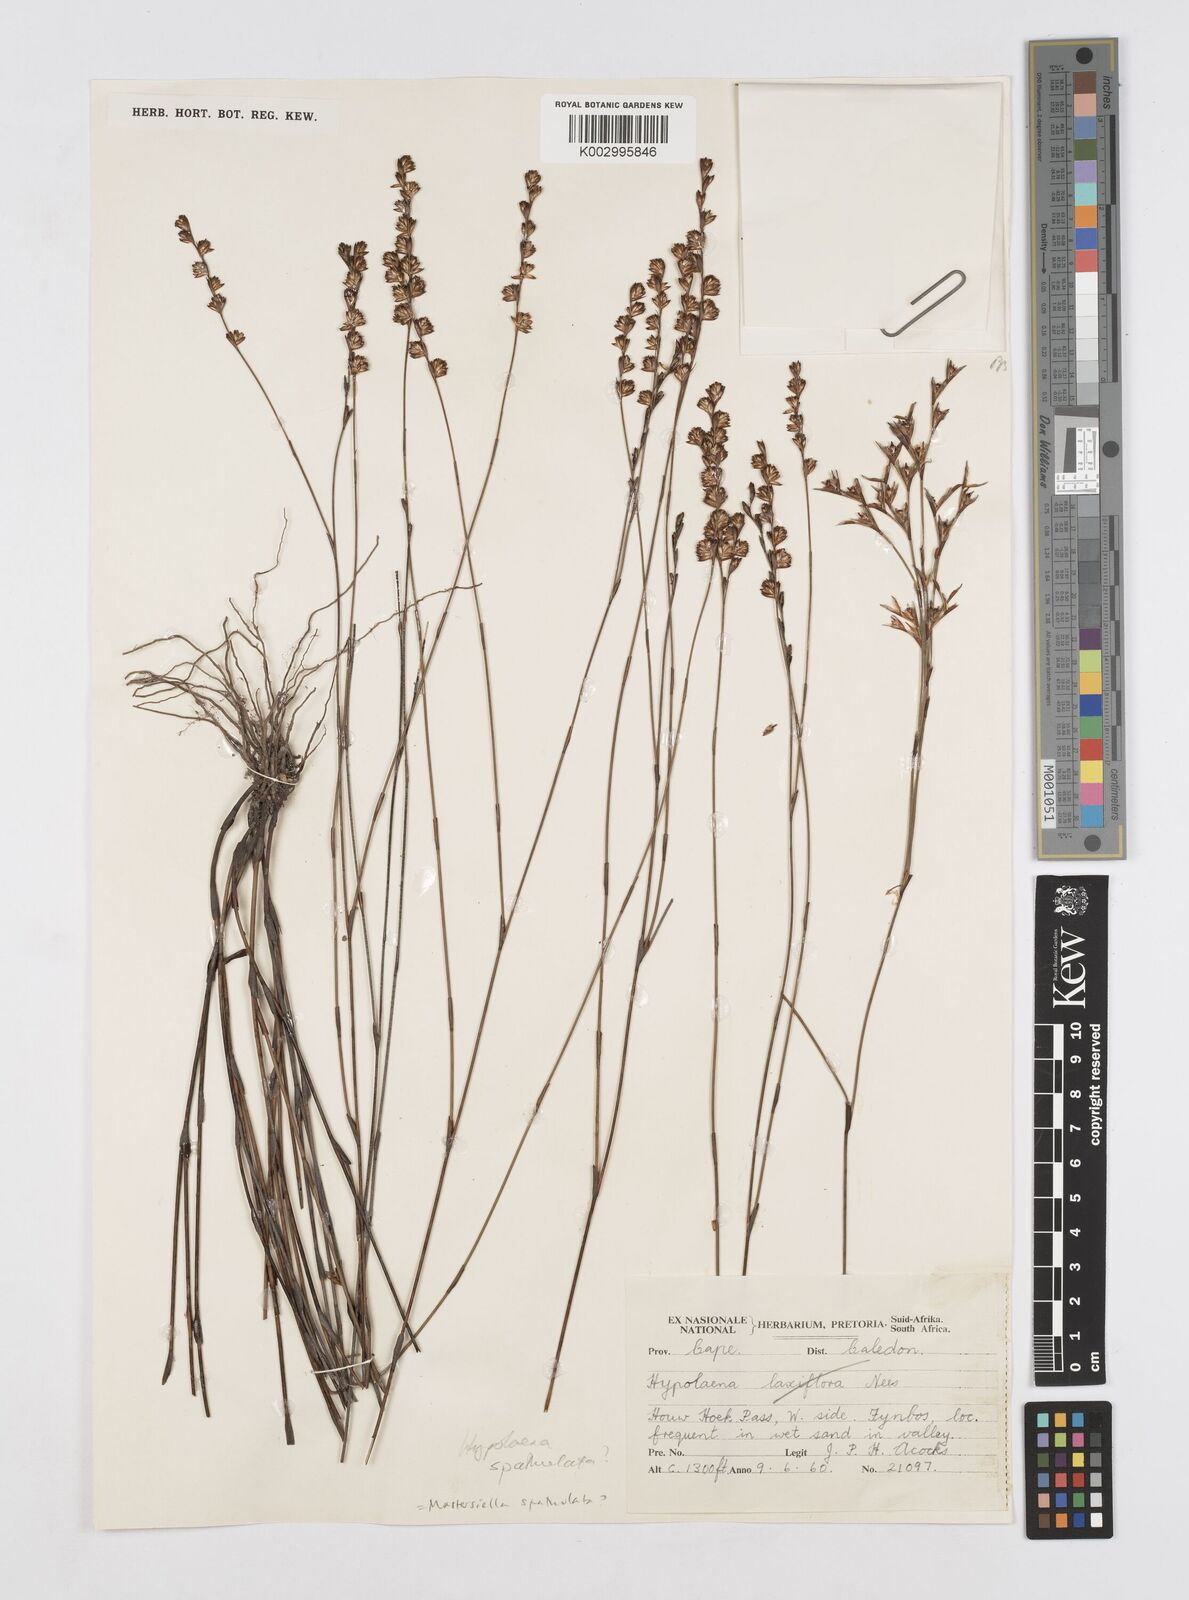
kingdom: Plantae
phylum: Tracheophyta
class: Liliopsida
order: Poales
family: Restionaceae
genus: Mastersiella
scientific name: Mastersiella spathulata
